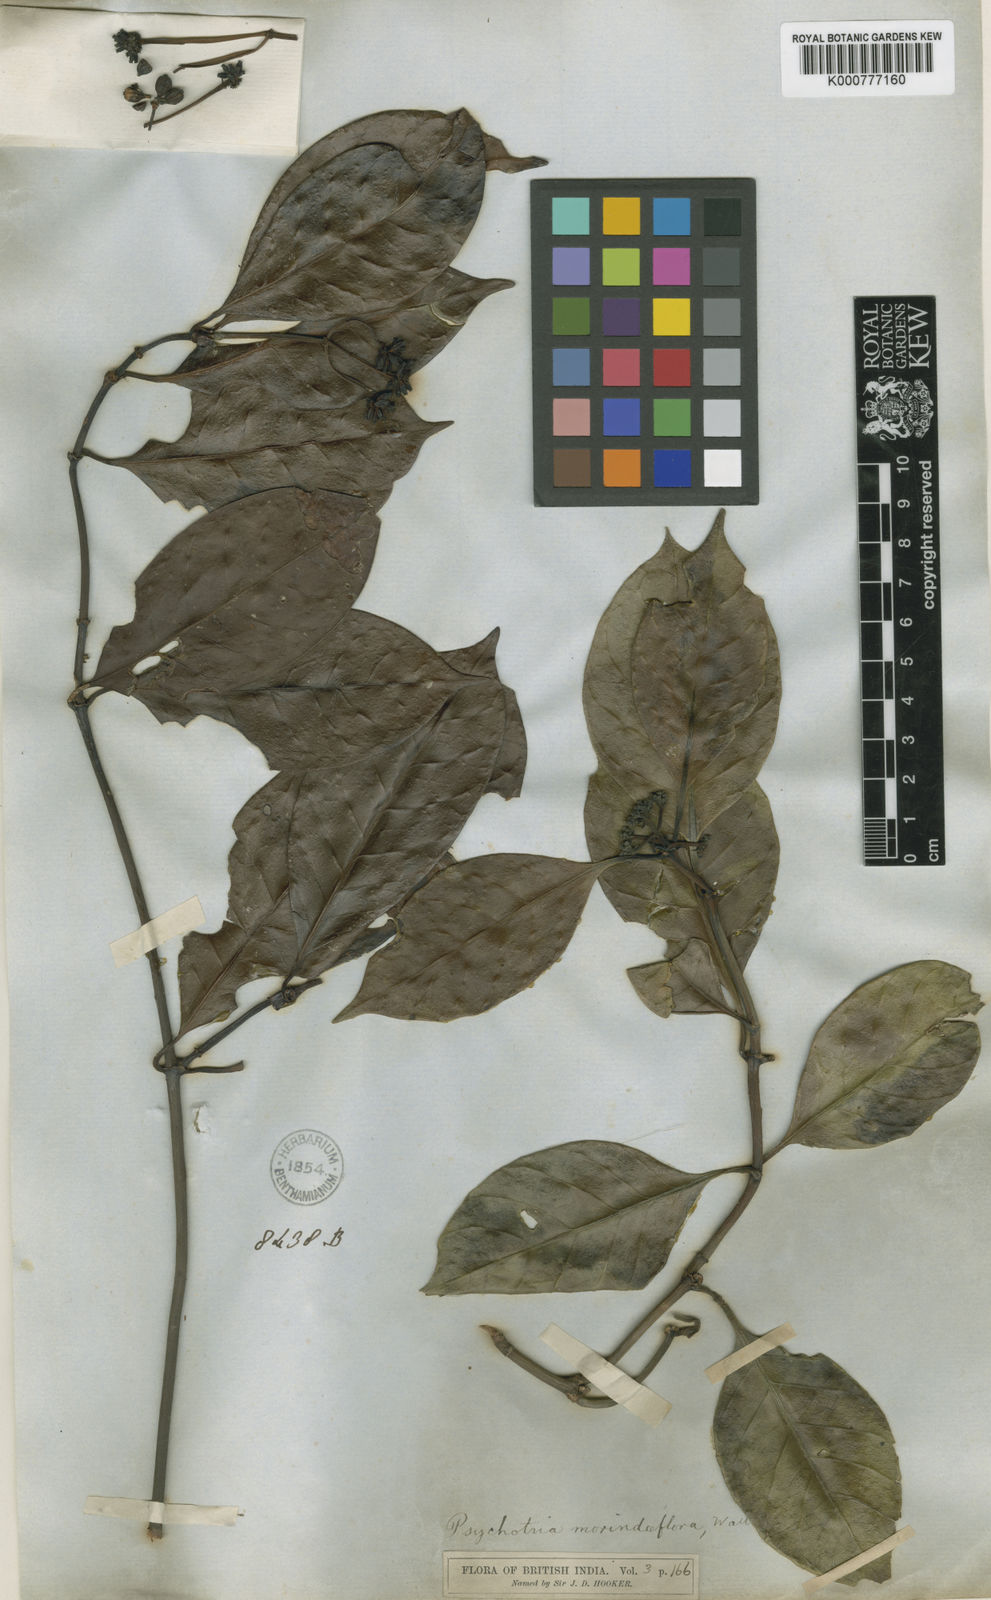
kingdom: Plantae
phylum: Tracheophyta
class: Magnoliopsida
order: Gentianales
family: Rubiaceae
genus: Psychotria
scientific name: Psychotria morindiflora
